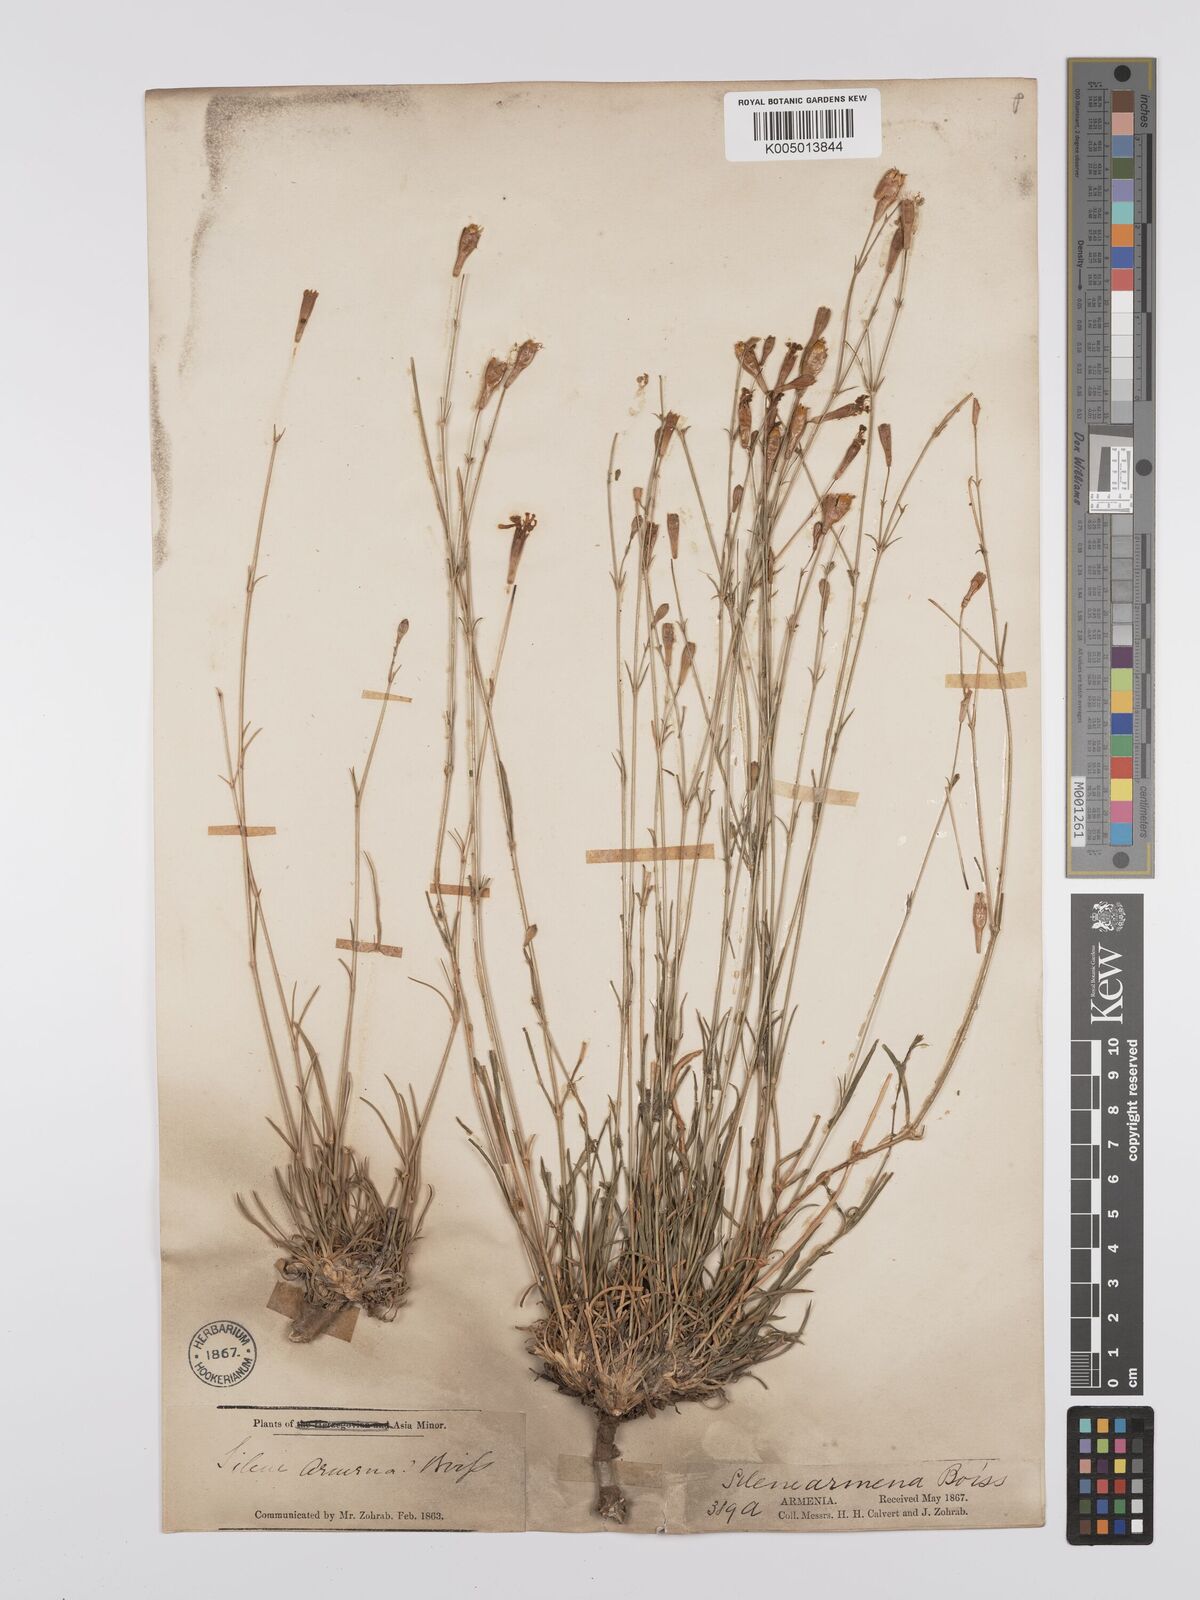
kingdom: Plantae
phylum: Tracheophyta
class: Magnoliopsida
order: Caryophyllales
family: Caryophyllaceae
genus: Silene
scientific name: Silene
